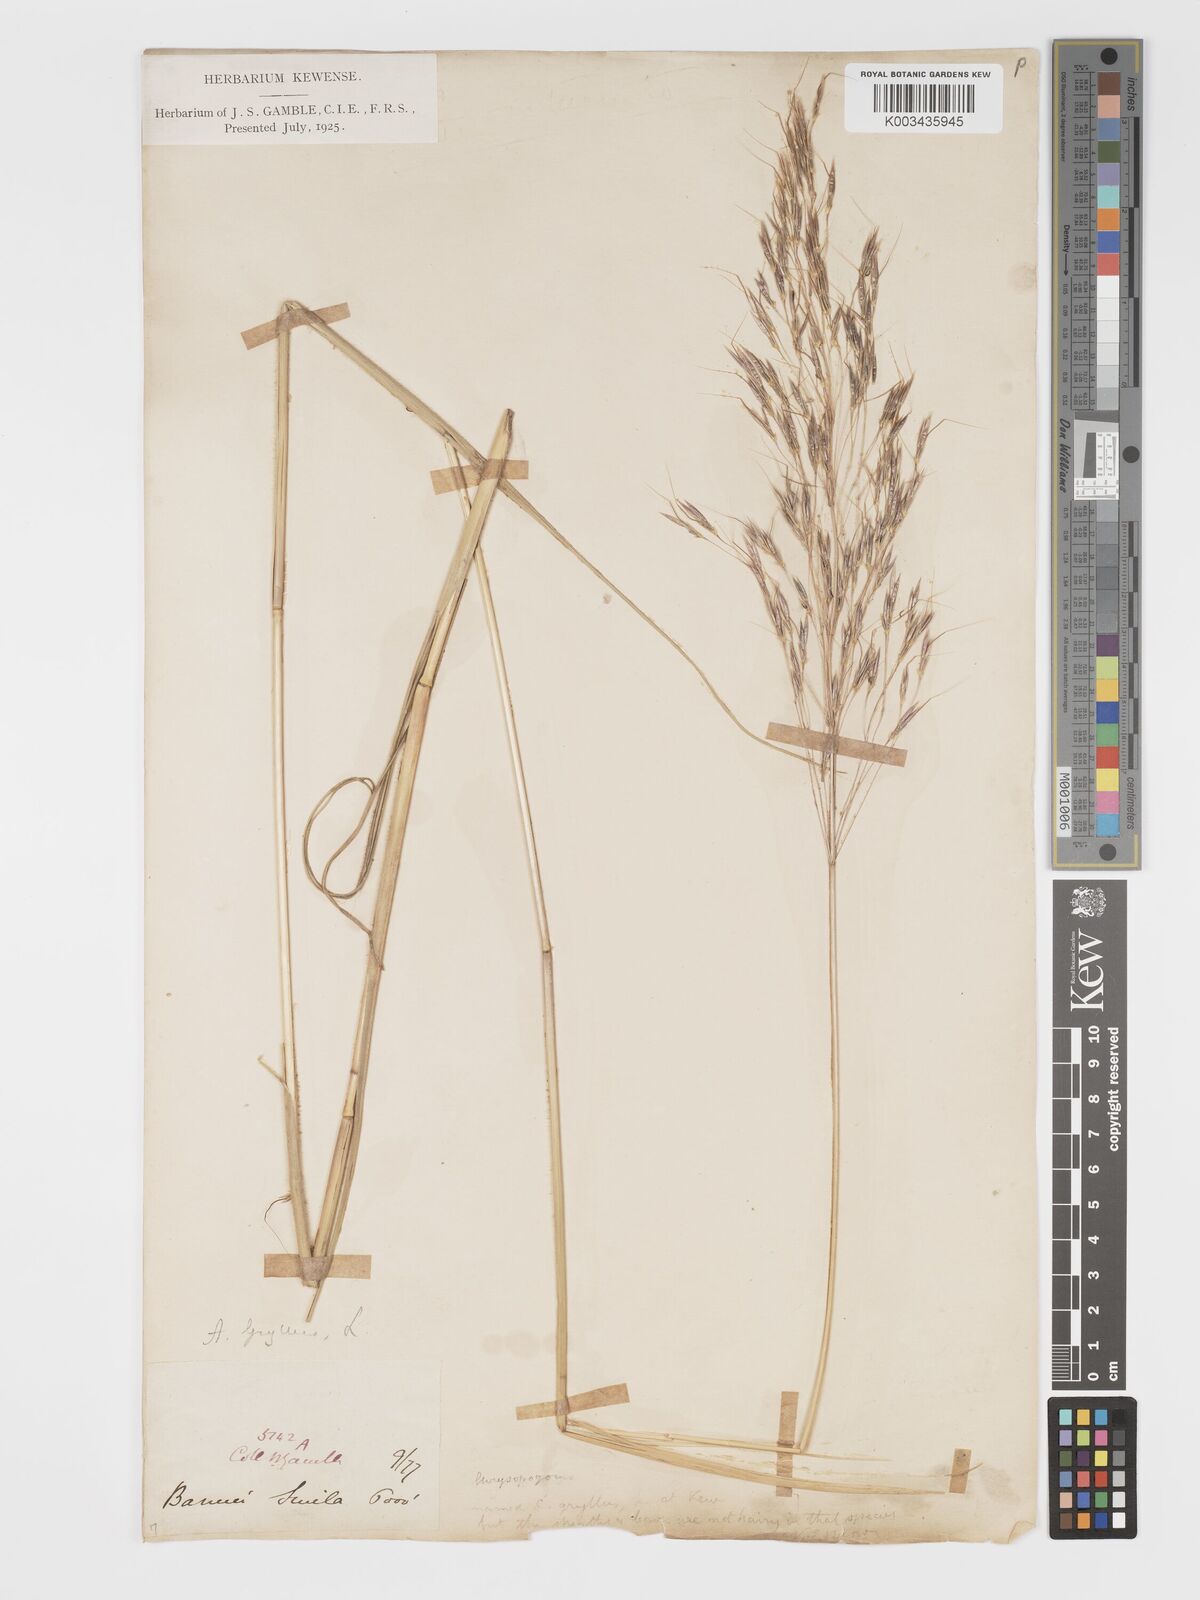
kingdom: Plantae
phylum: Tracheophyta
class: Liliopsida
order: Poales
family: Poaceae
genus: Chrysopogon
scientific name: Chrysopogon gryllus
